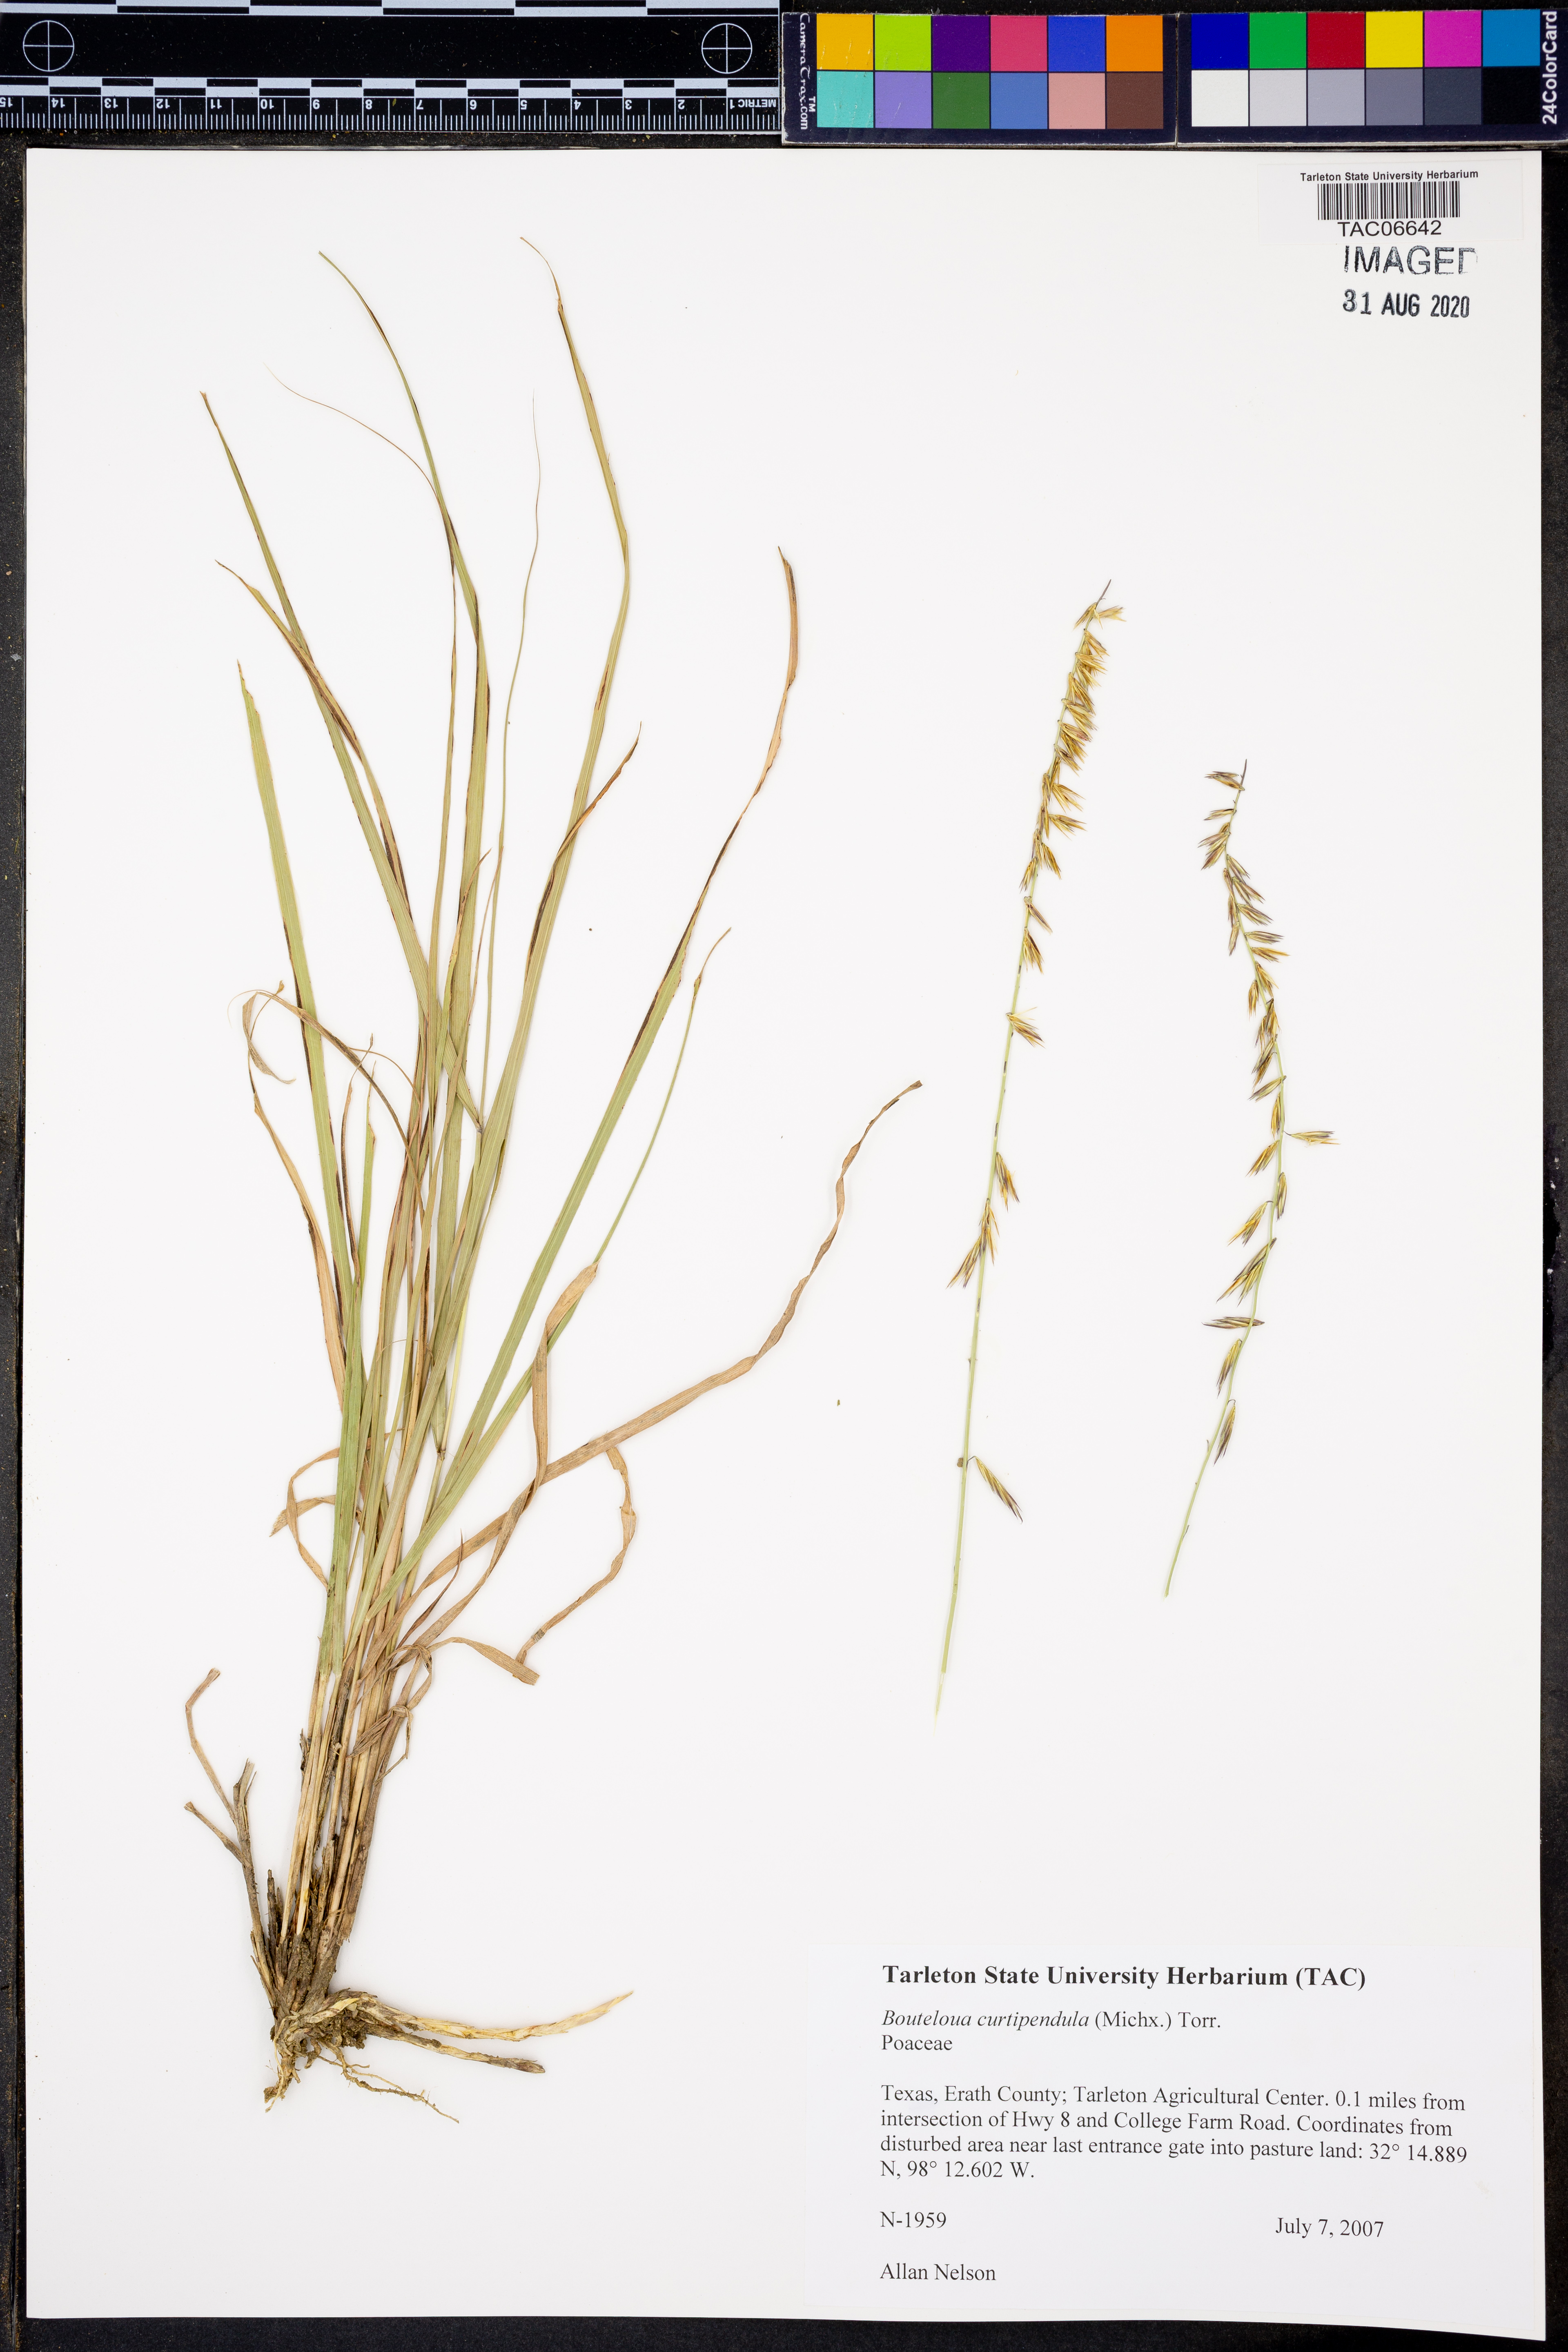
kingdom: Plantae
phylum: Tracheophyta
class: Liliopsida
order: Poales
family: Poaceae
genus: Bouteloua
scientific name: Bouteloua curtipendula
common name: Side-oats grama
